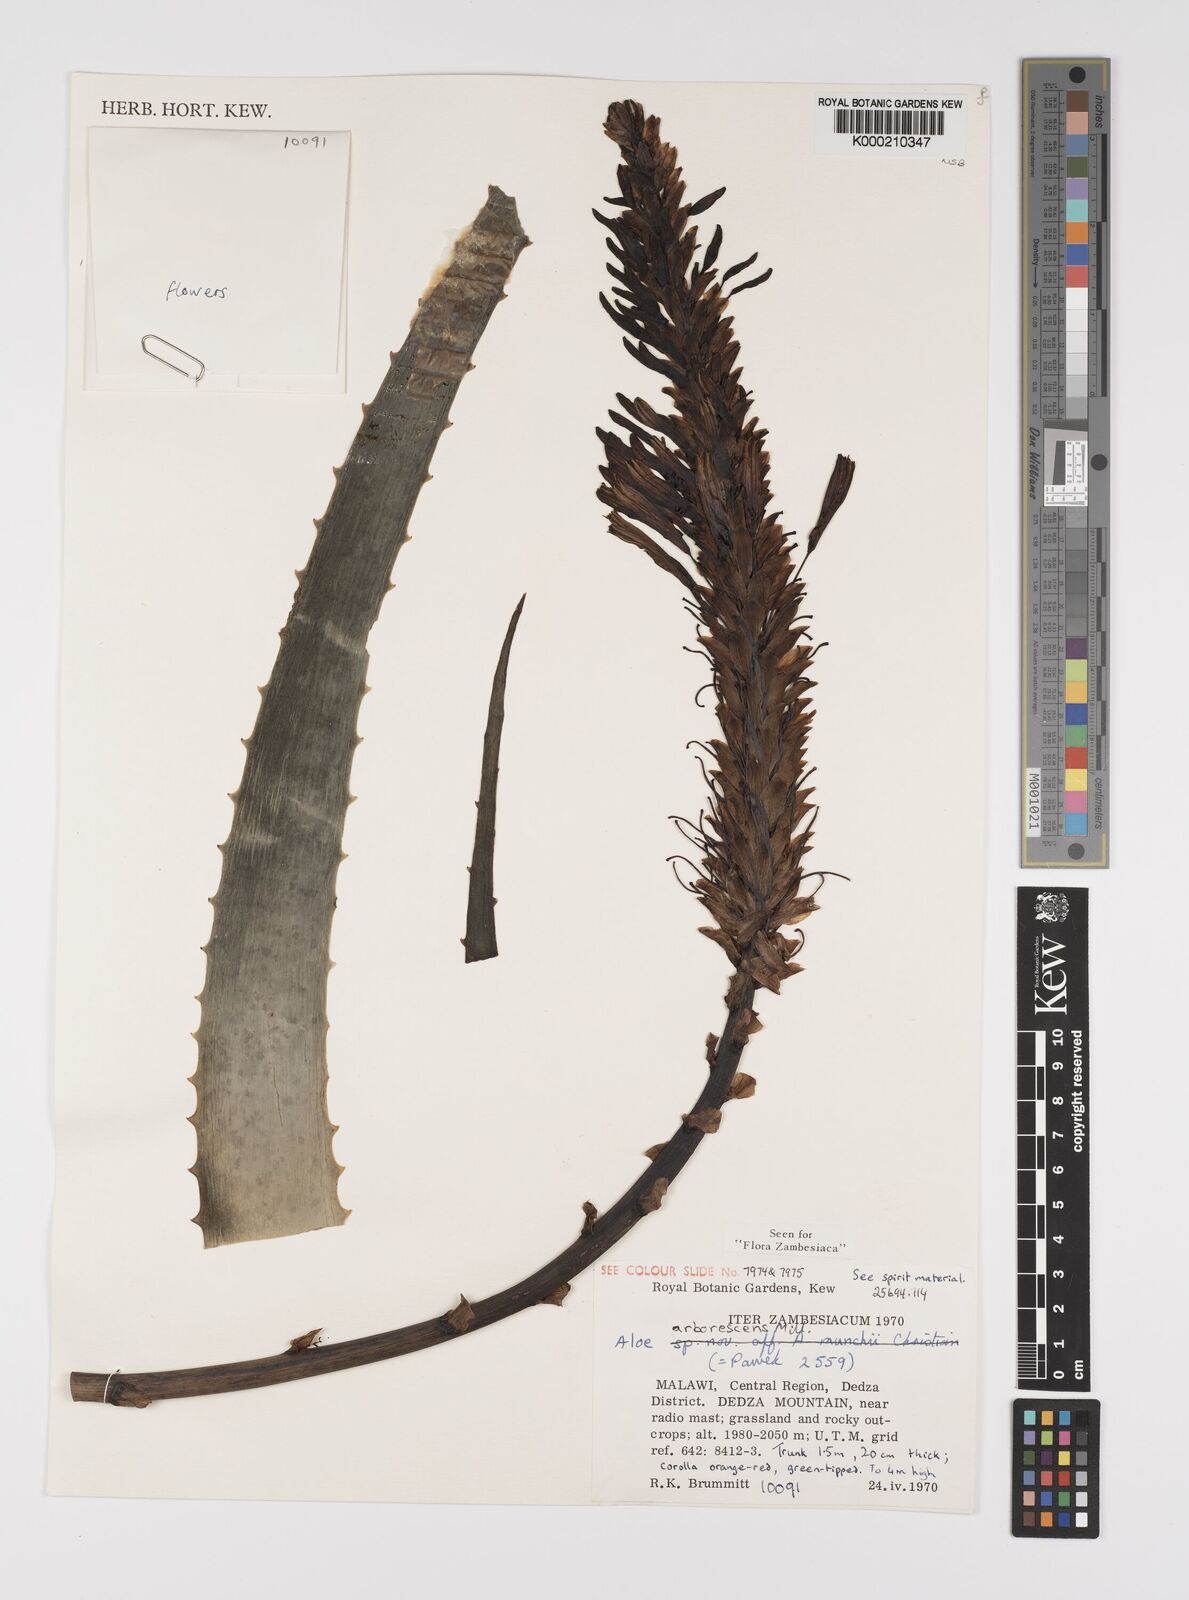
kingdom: Plantae
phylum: Tracheophyta
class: Liliopsida
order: Asparagales
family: Asphodelaceae
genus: Aloe
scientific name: Aloe arborescens
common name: Candelabra aloe
